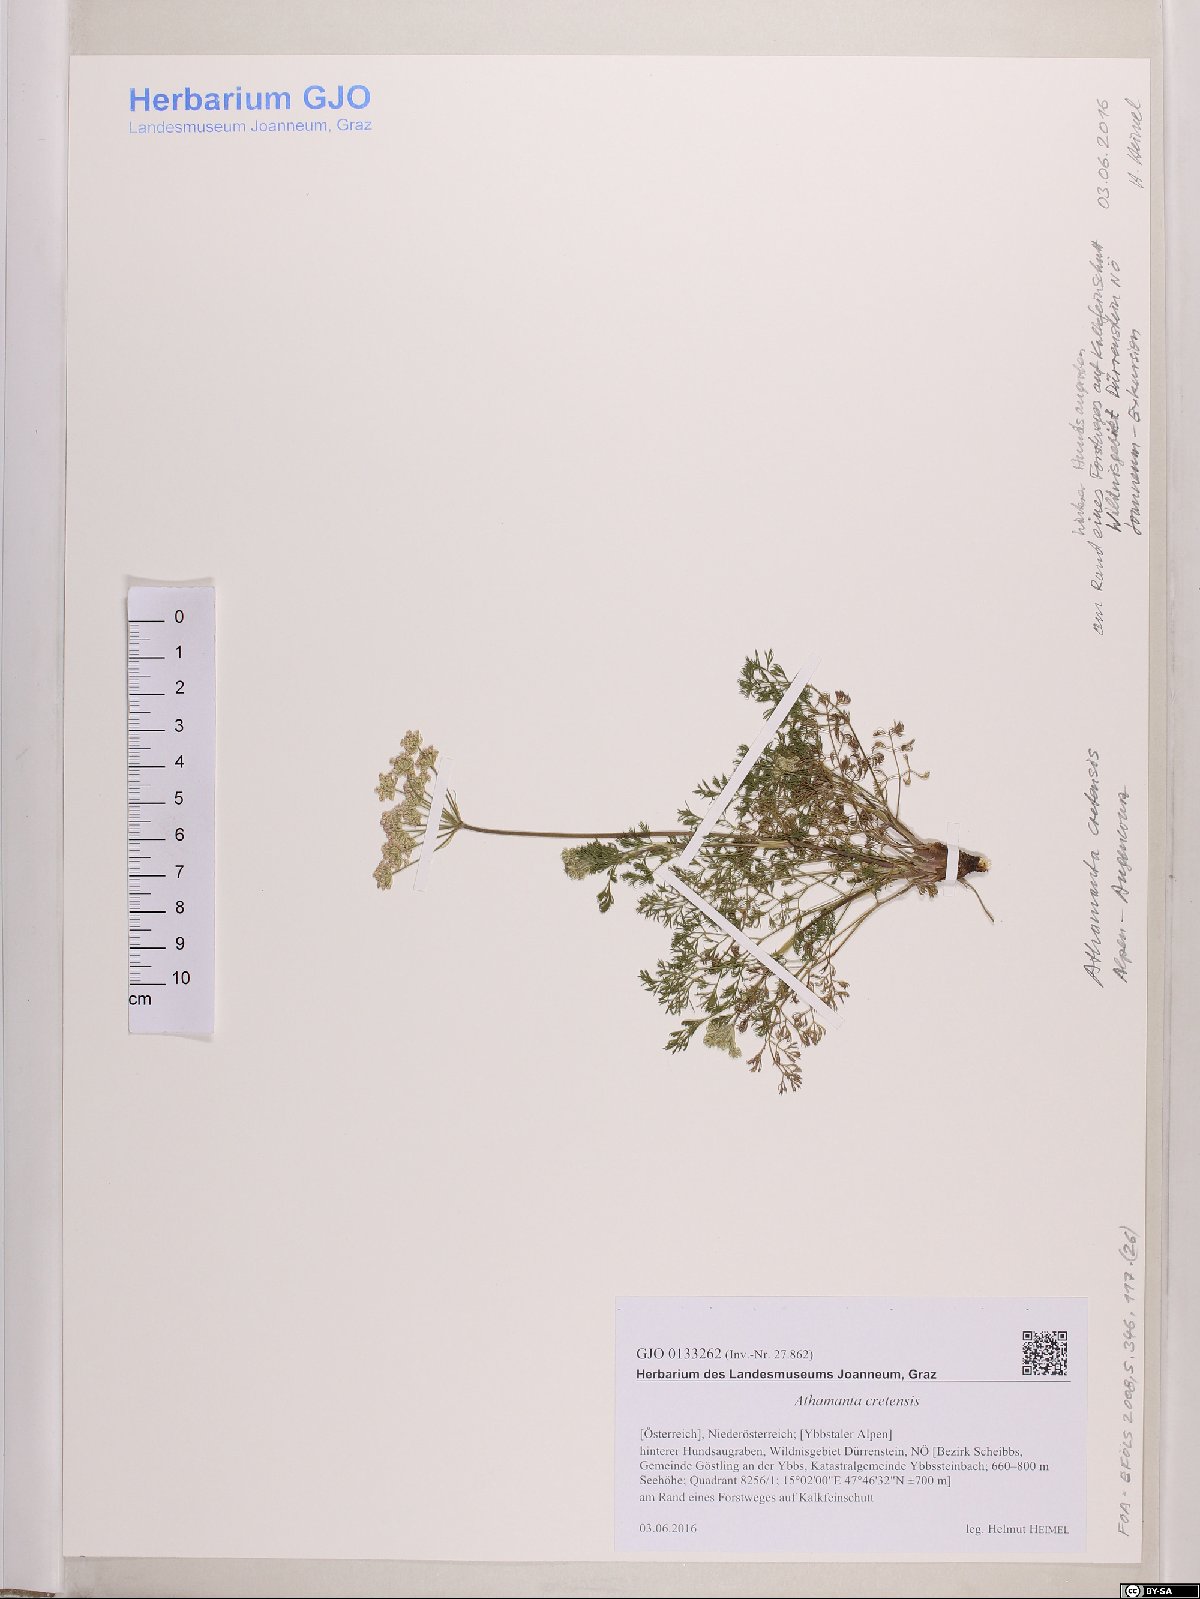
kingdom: Plantae
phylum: Tracheophyta
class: Magnoliopsida
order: Apiales
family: Apiaceae
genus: Athamanta
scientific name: Athamanta cretensis
